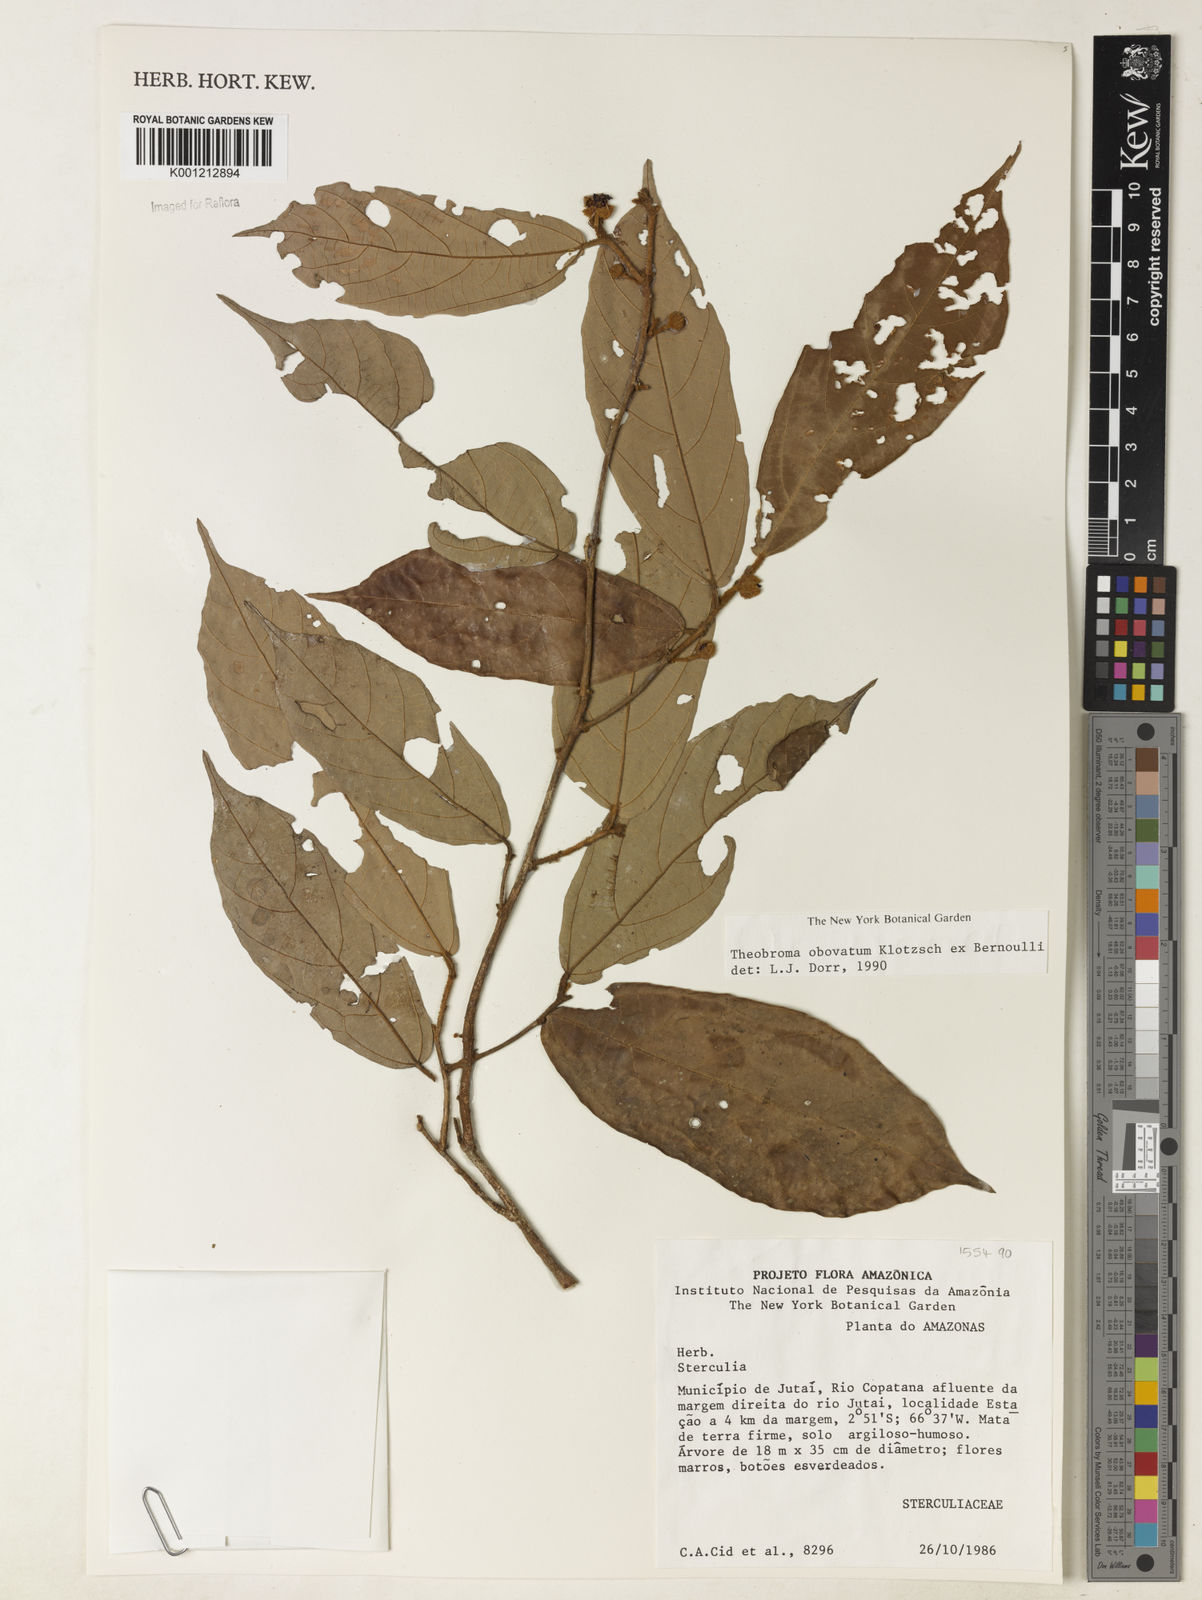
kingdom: Plantae
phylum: Tracheophyta
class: Magnoliopsida
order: Malvales
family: Malvaceae
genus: Theobroma
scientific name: Theobroma obovatum
